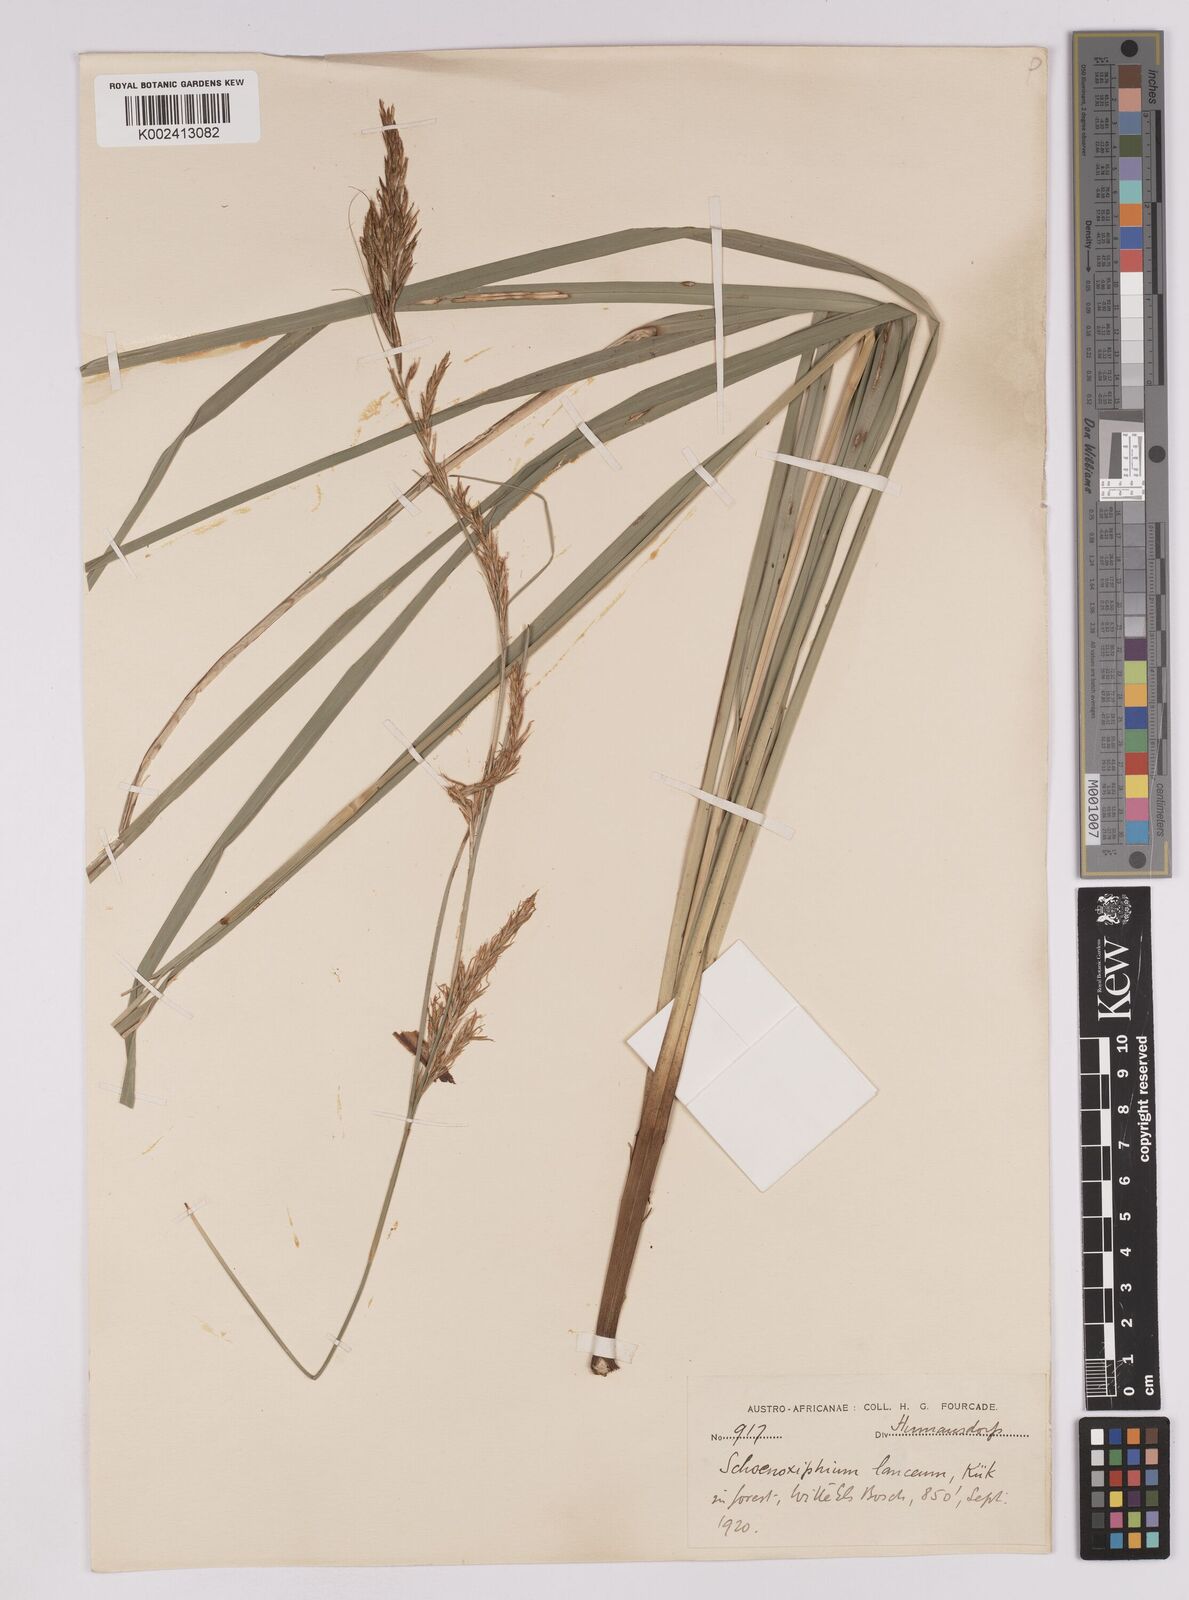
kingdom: Plantae
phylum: Tracheophyta
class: Liliopsida
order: Poales
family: Cyperaceae
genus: Carex
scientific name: Carex lancea
